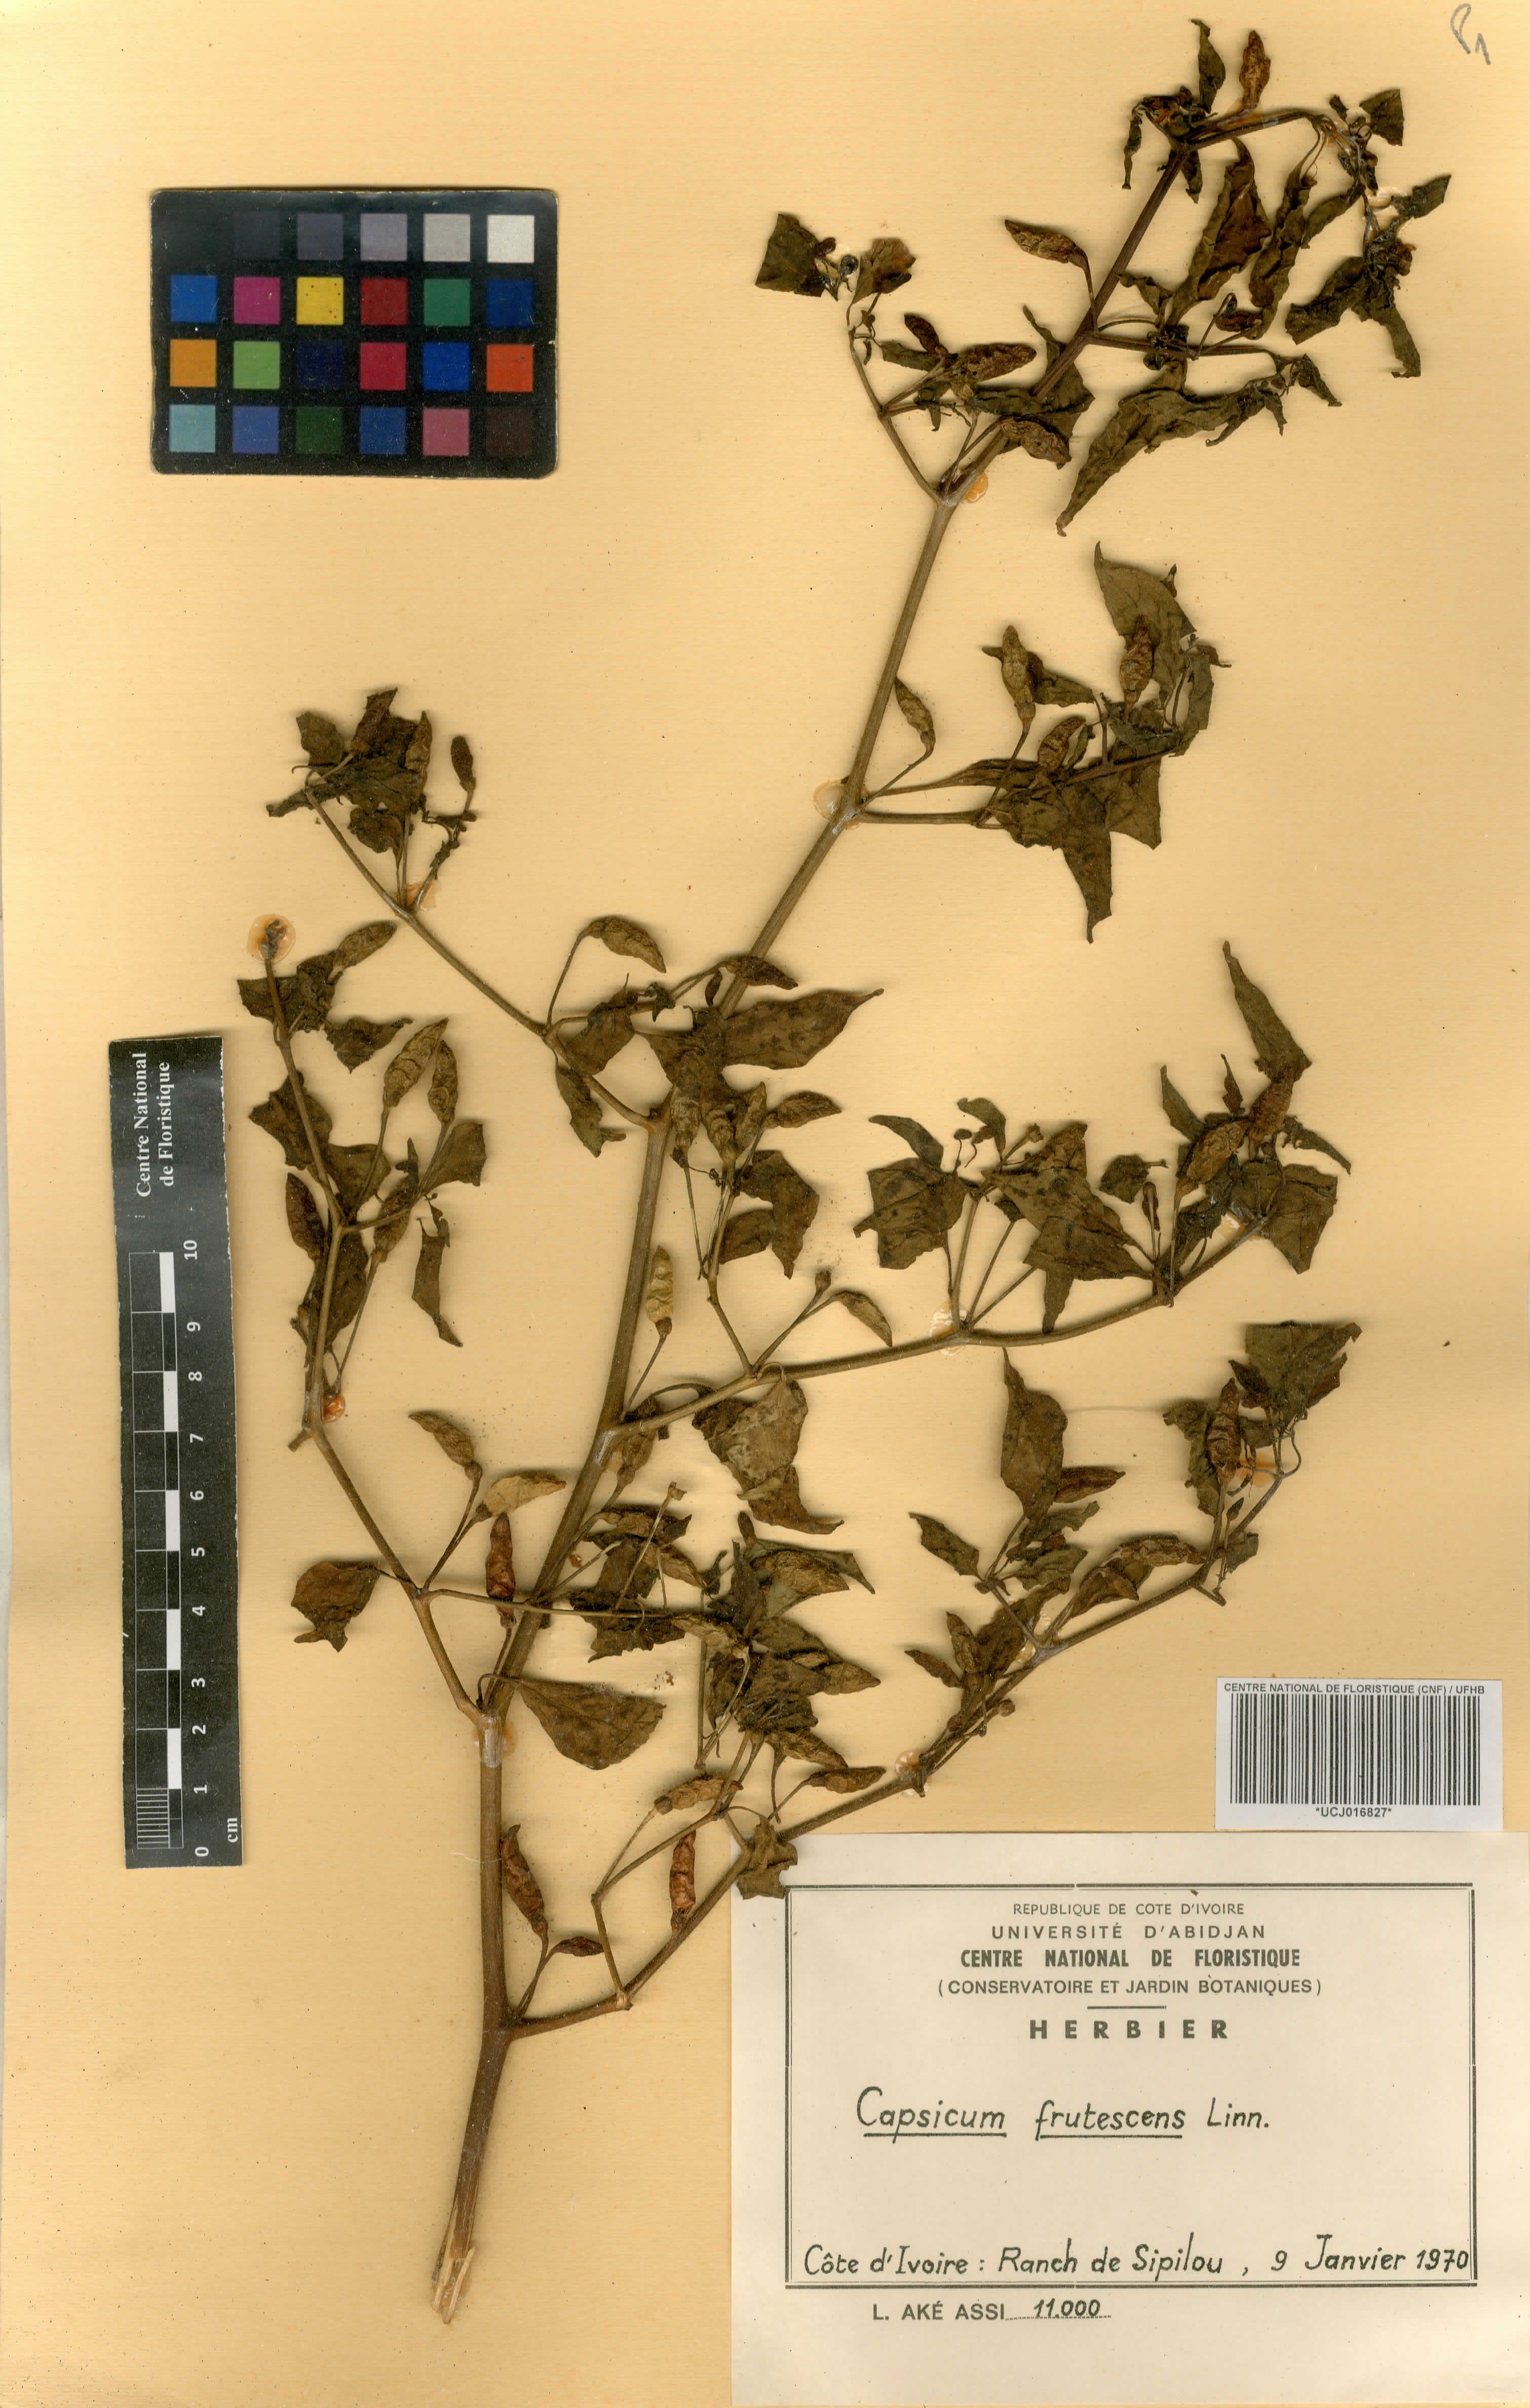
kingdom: Plantae
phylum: Tracheophyta
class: Magnoliopsida
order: Solanales
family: Solanaceae
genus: Capsicum
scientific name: Capsicum frutescens
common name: Bird pepper
